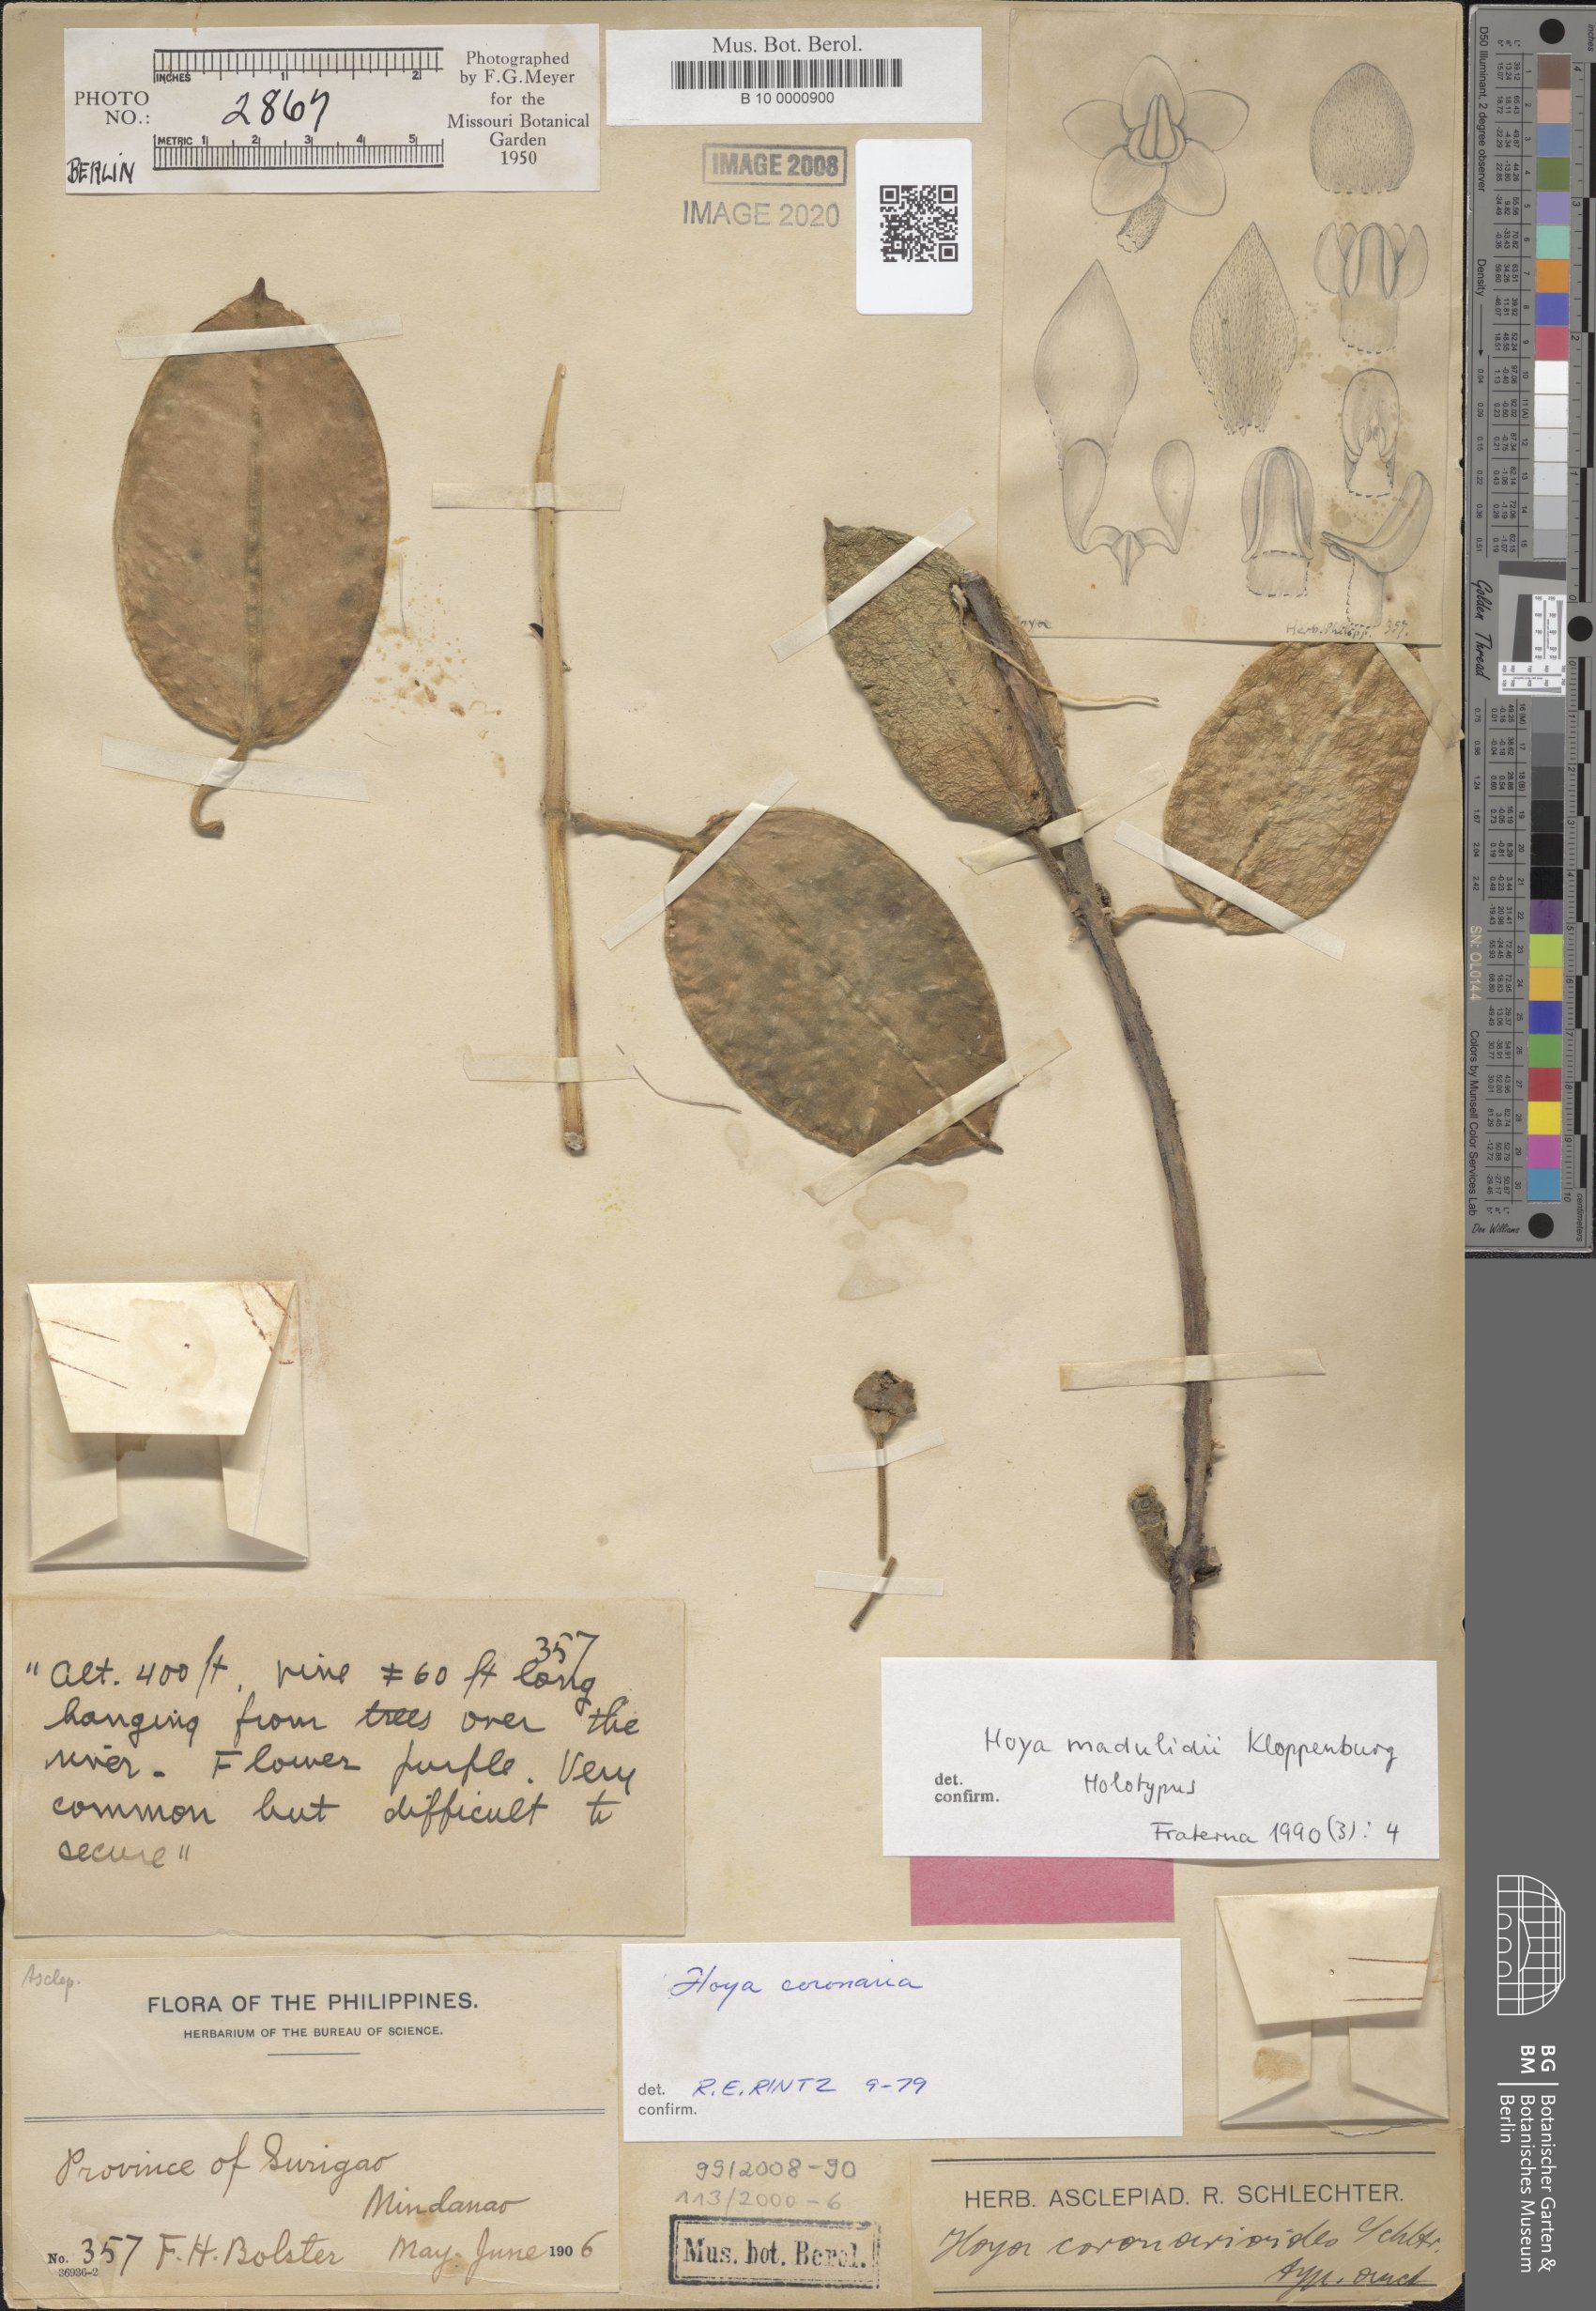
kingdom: Plantae
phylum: Tracheophyta
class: Magnoliopsida
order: Gentianales
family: Apocynaceae
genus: Eriostemma
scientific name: Eriostemma madulidii
